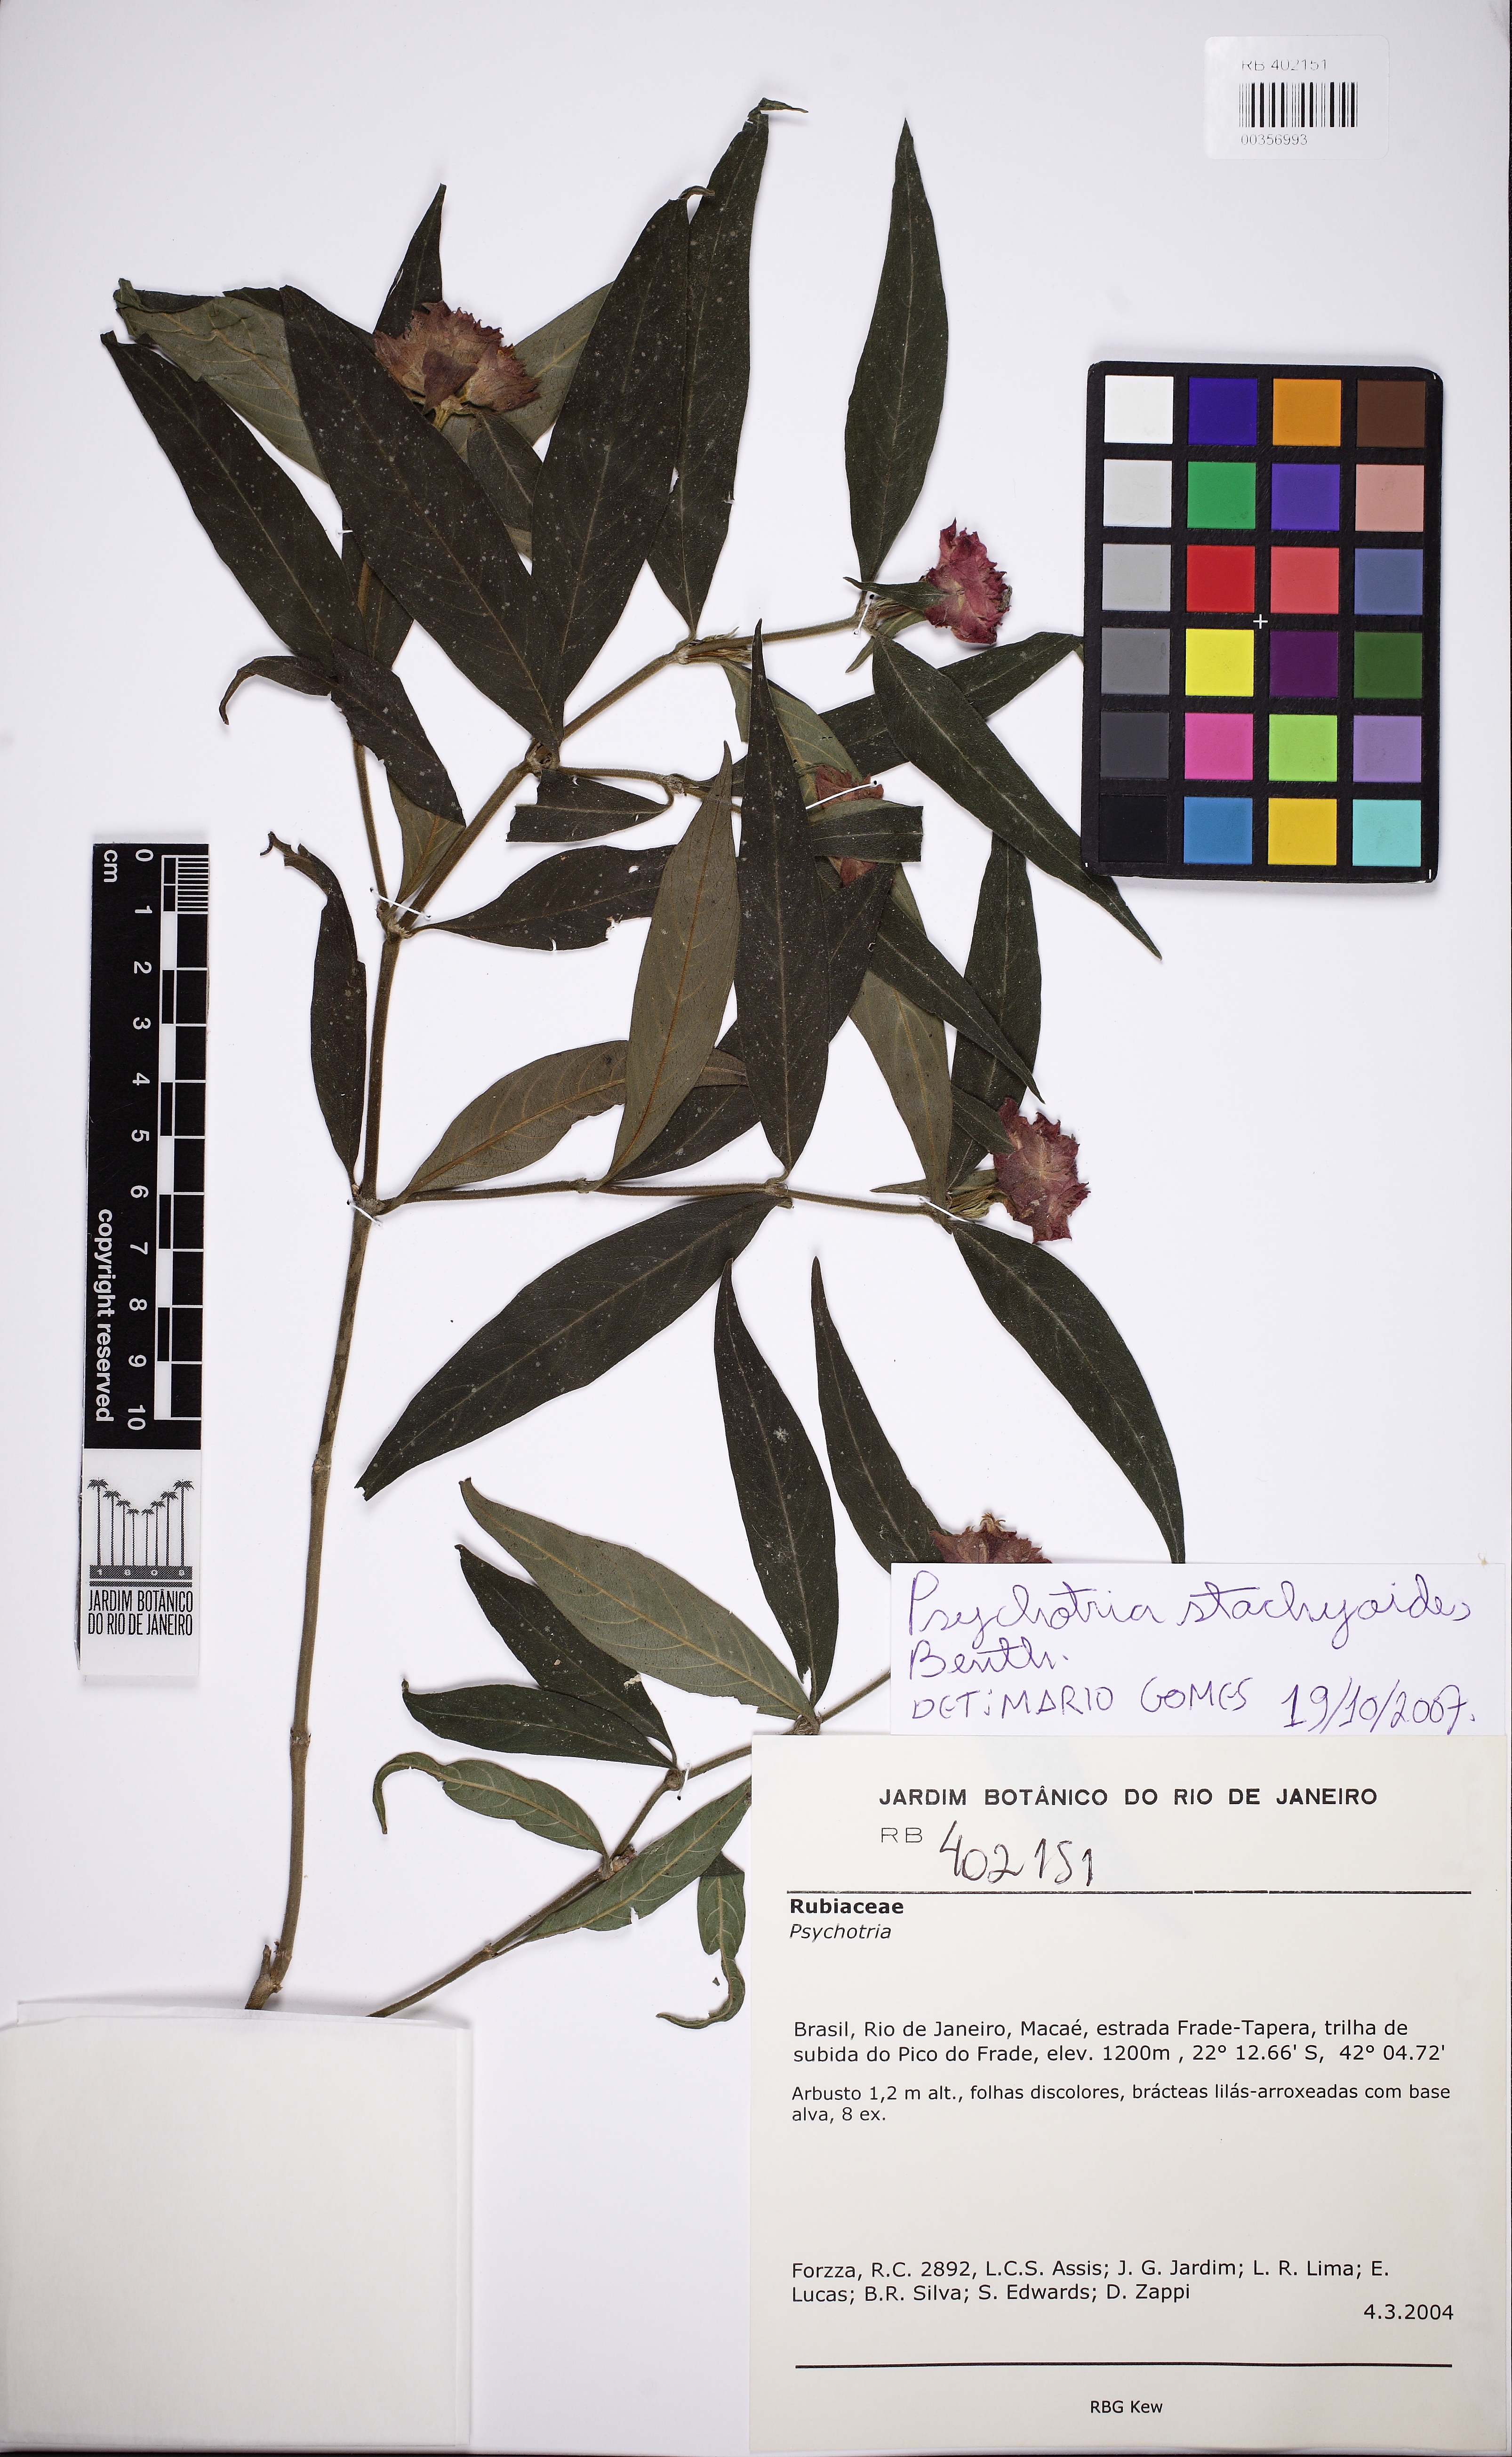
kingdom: Plantae
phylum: Tracheophyta
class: Magnoliopsida
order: Gentianales
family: Rubiaceae
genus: Psychotria
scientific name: Psychotria stachyoides
